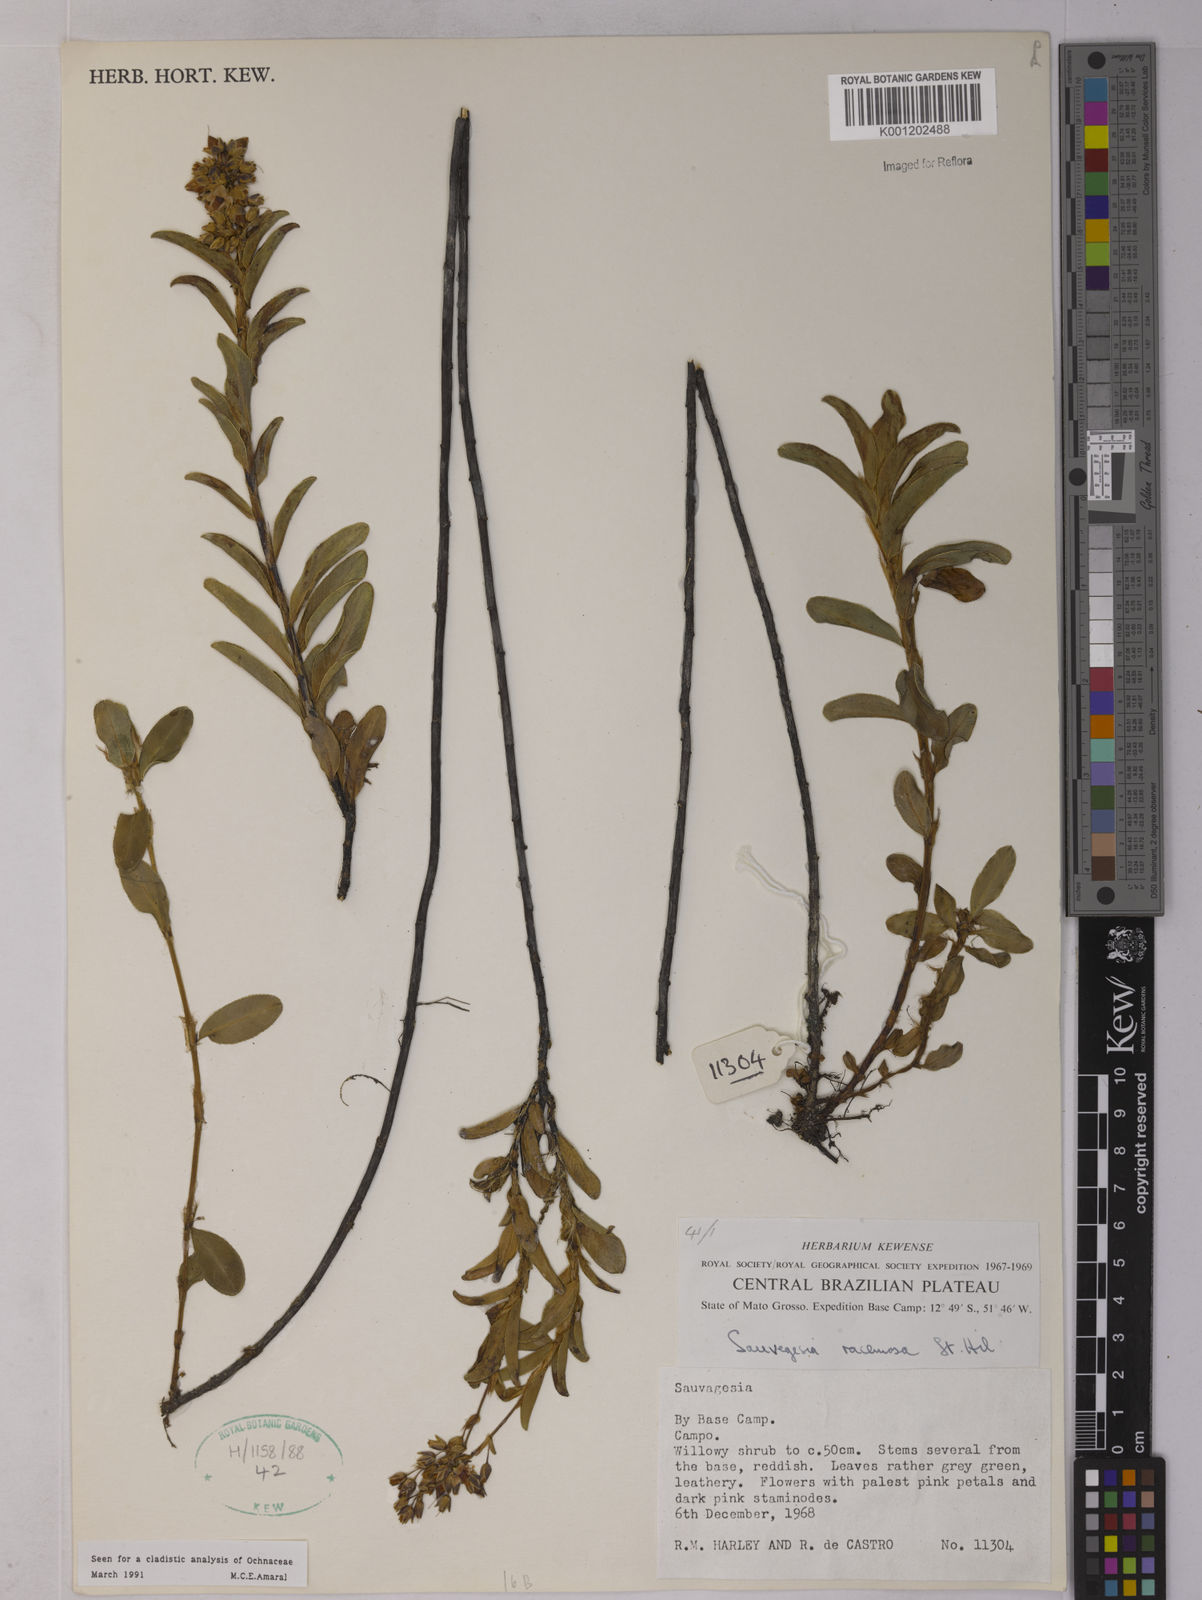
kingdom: Plantae
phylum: Tracheophyta
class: Magnoliopsida
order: Malpighiales
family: Ochnaceae
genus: Sauvagesia
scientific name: Sauvagesia racemosa
